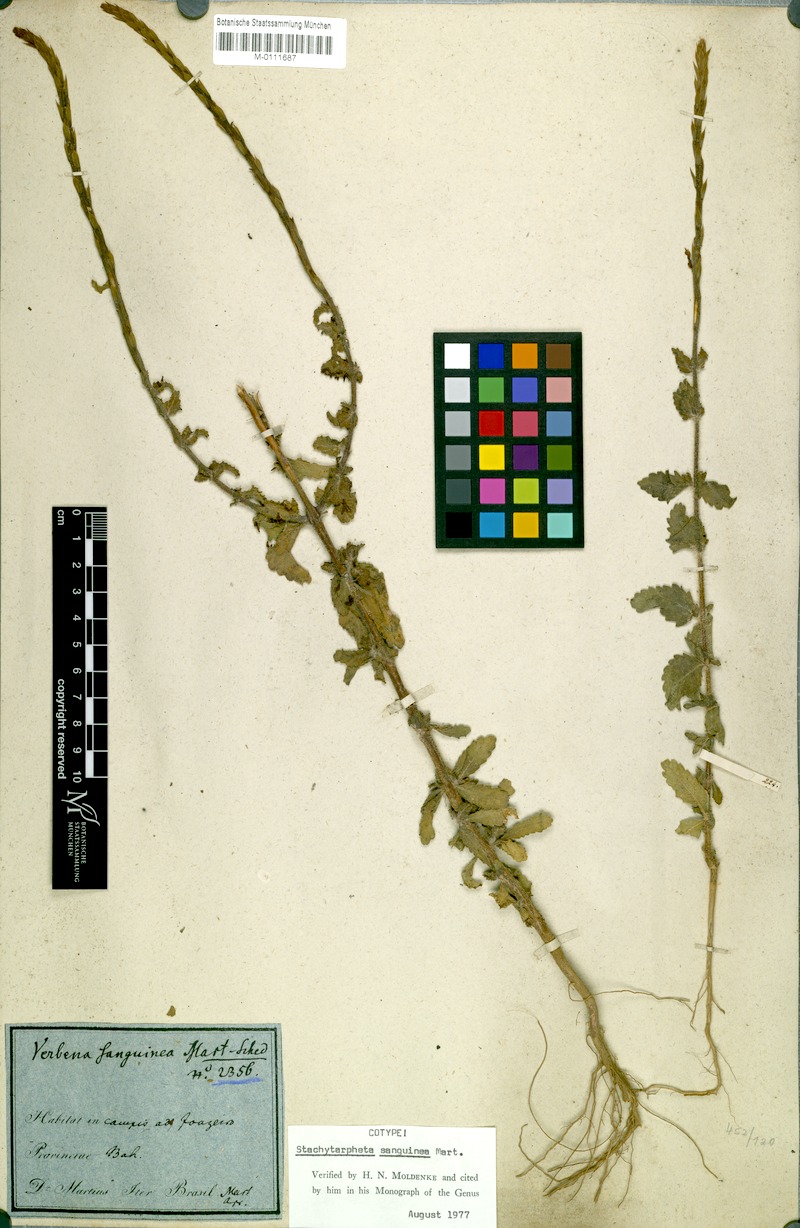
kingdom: Plantae
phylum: Tracheophyta
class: Magnoliopsida
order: Lamiales
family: Verbenaceae
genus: Stachytarpheta
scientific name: Stachytarpheta microphylla
